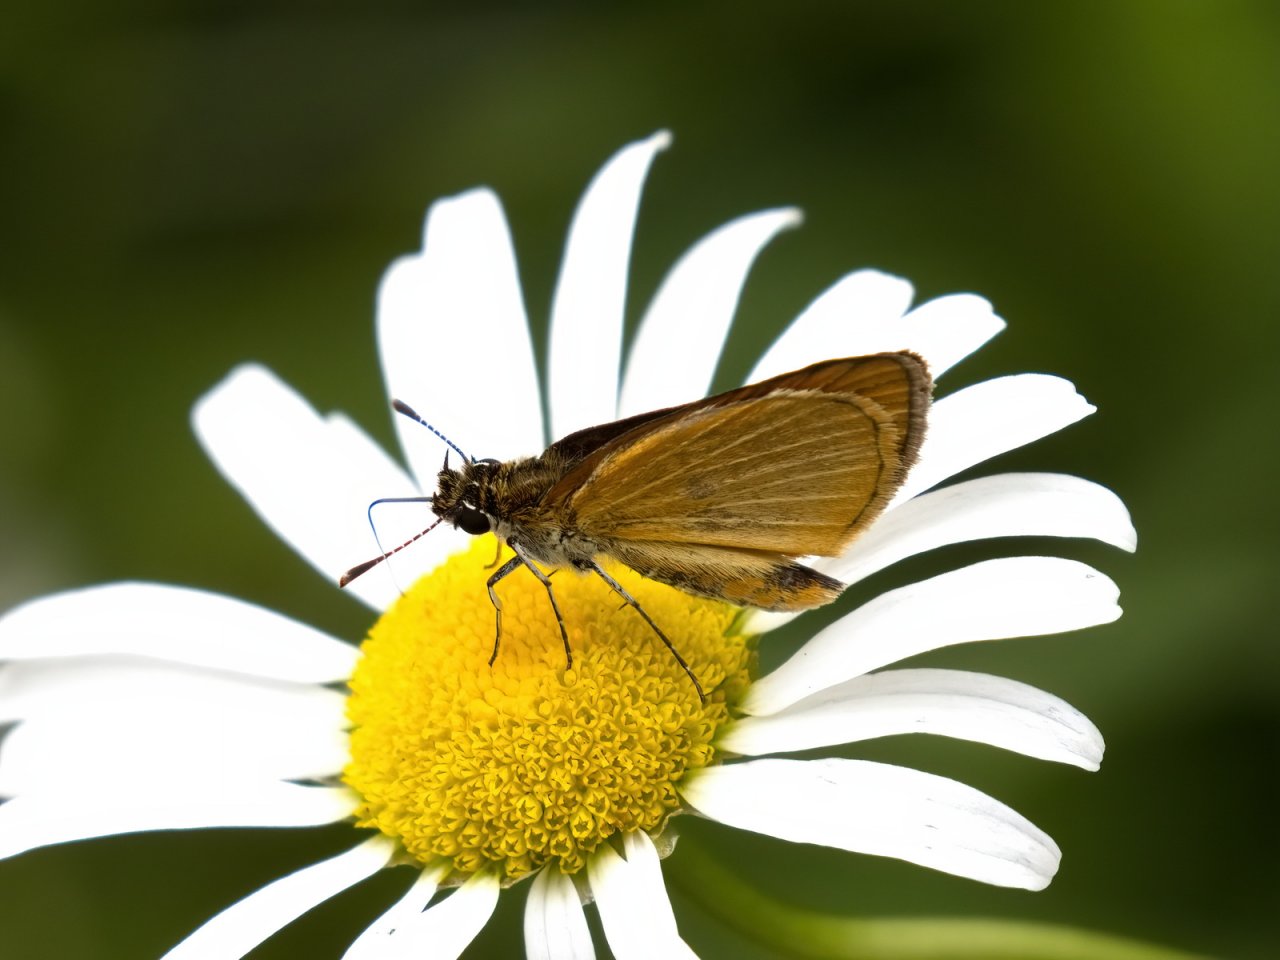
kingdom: Animalia
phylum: Arthropoda
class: Insecta
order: Lepidoptera
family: Hesperiidae
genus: Ancyloxypha
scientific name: Ancyloxypha numitor
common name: Least Skipper
